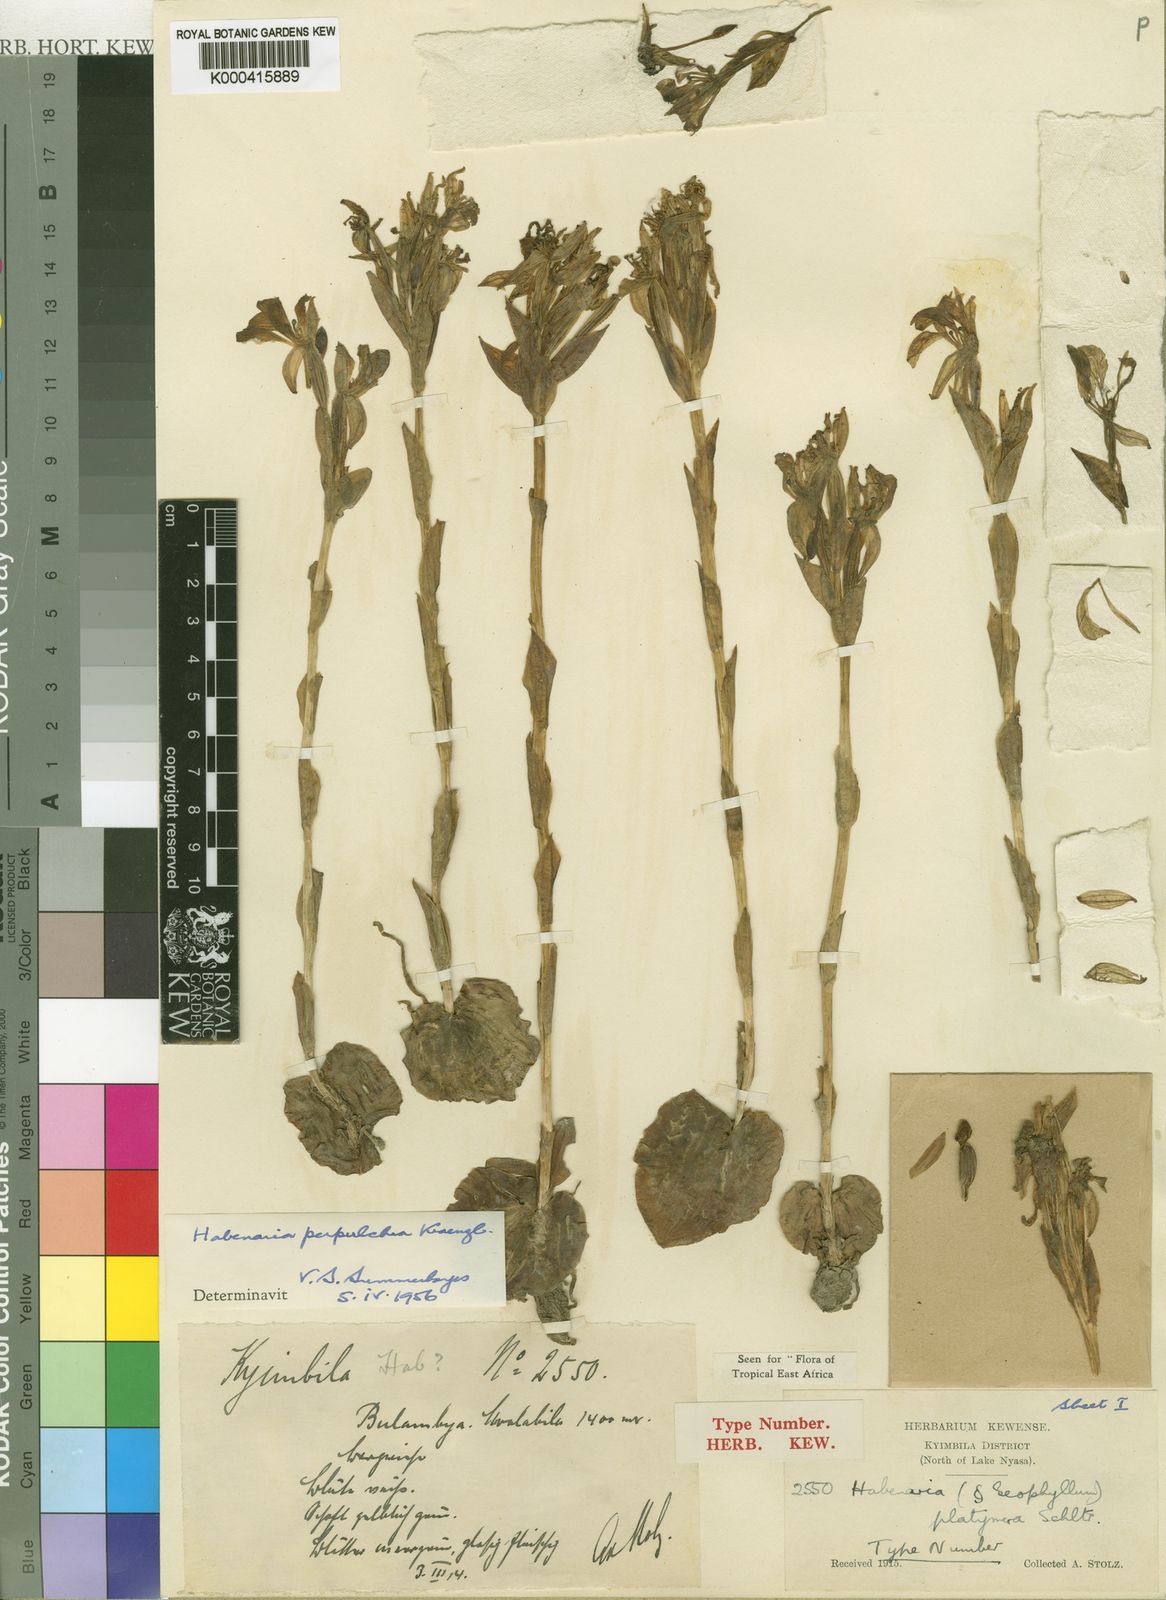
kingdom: Plantae
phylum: Tracheophyta
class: Liliopsida
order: Asparagales
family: Orchidaceae
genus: Habenaria
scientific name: Habenaria perpulchra
